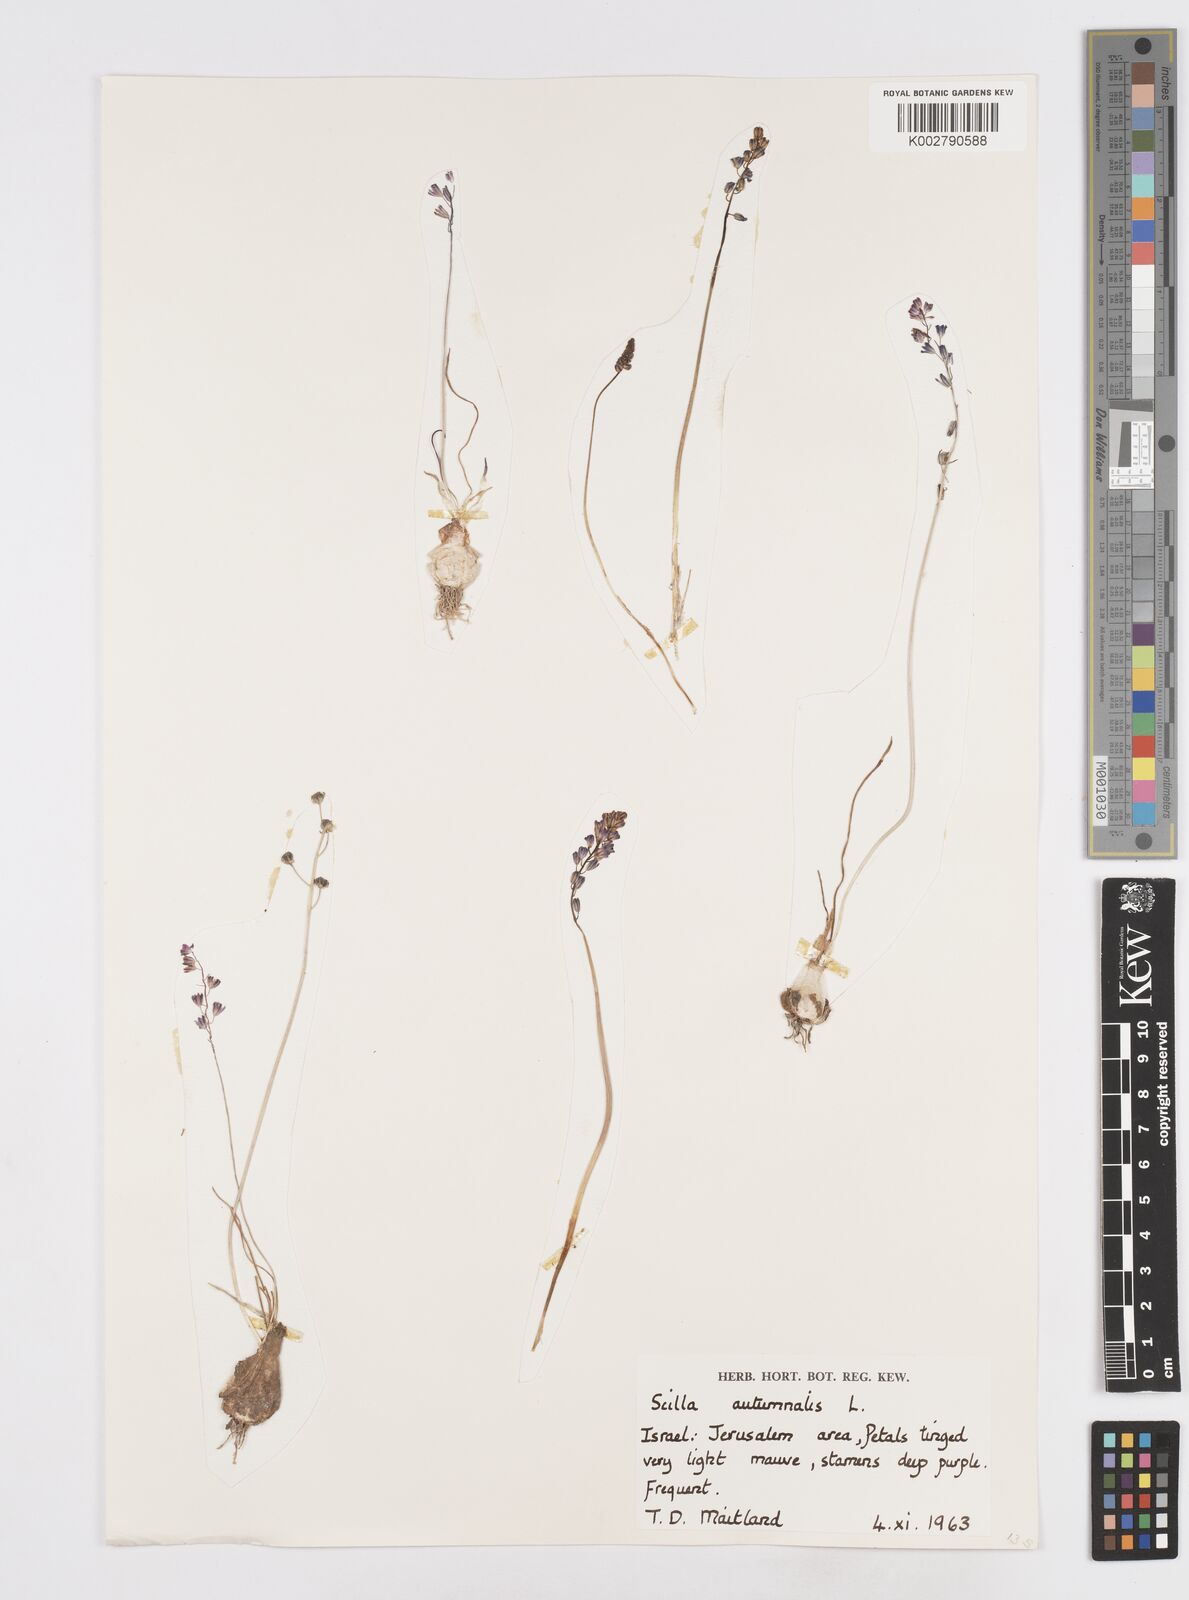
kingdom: Plantae
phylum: Tracheophyta
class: Liliopsida
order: Asparagales
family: Asparagaceae
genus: Prospero
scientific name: Prospero autumnale
